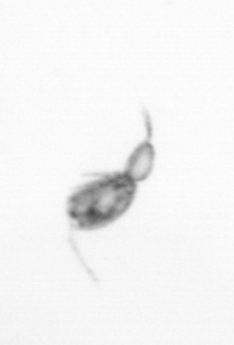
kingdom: Animalia
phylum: Arthropoda
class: Copepoda
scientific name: Copepoda
